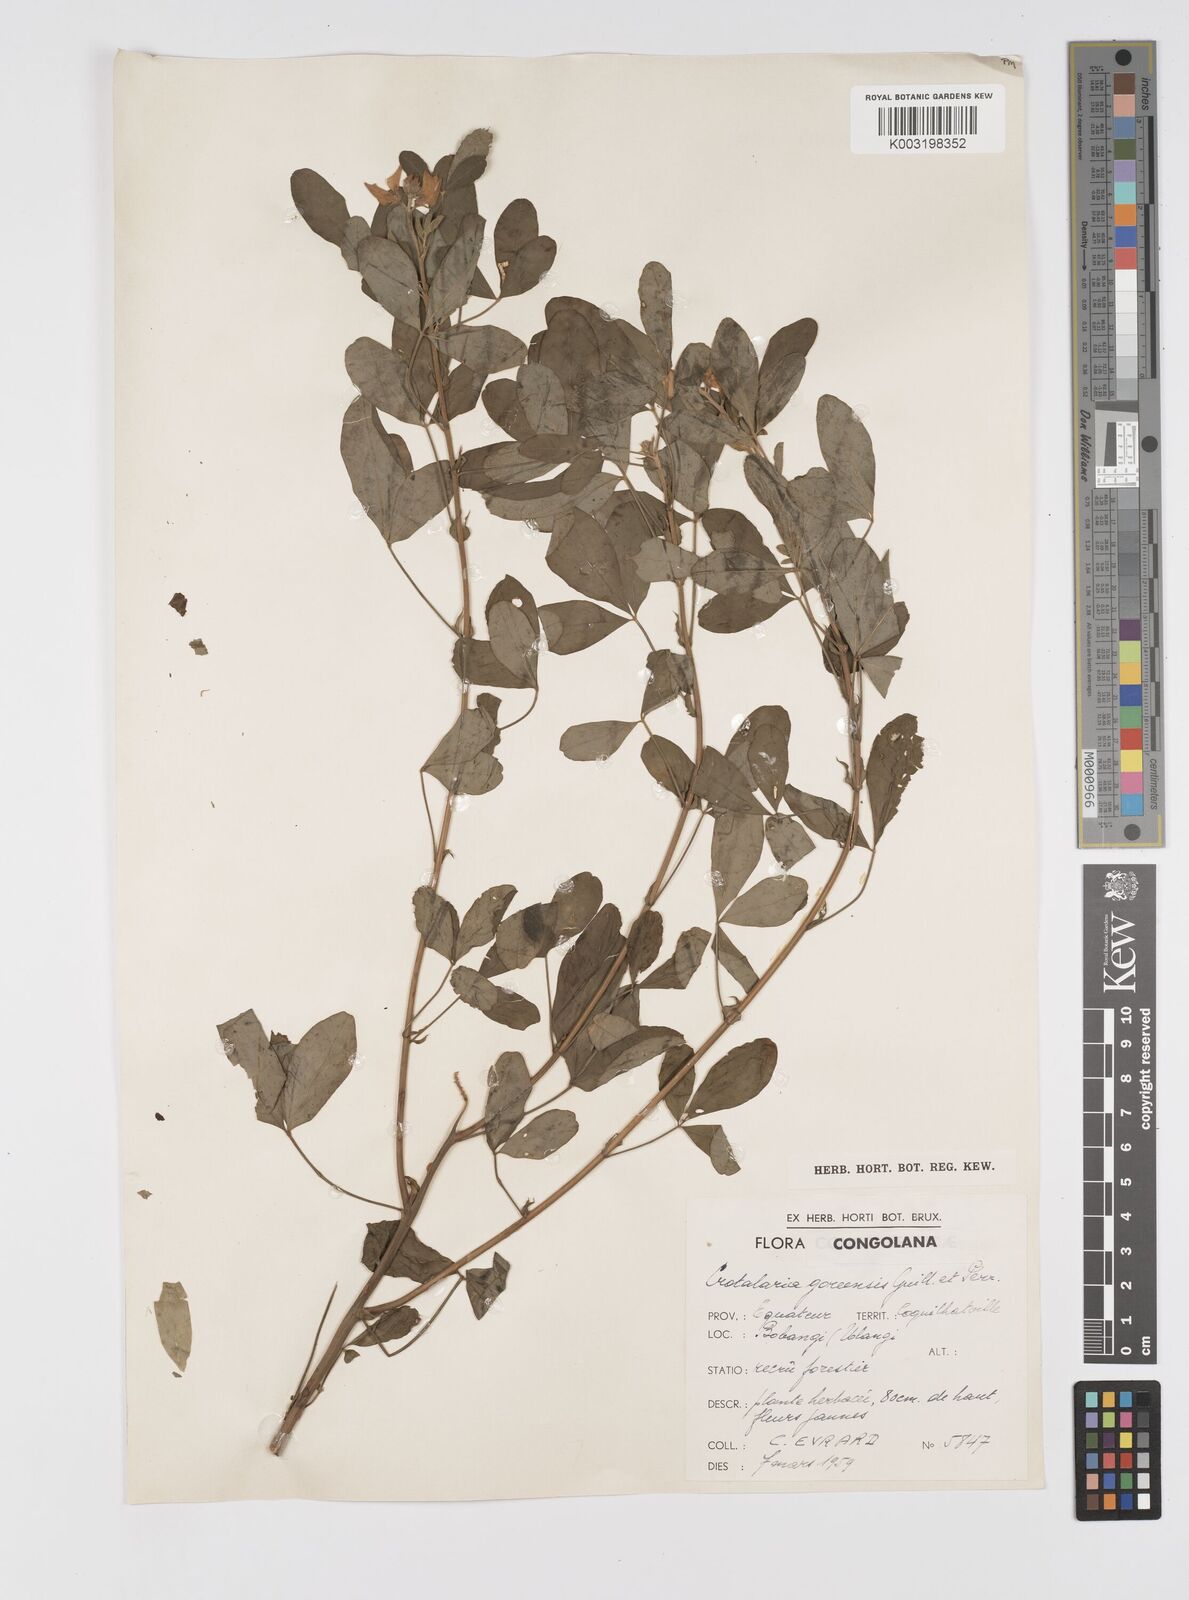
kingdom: Plantae
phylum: Tracheophyta
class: Magnoliopsida
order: Fabales
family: Fabaceae
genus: Crotalaria
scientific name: Crotalaria goreensis
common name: Gambia-pea
